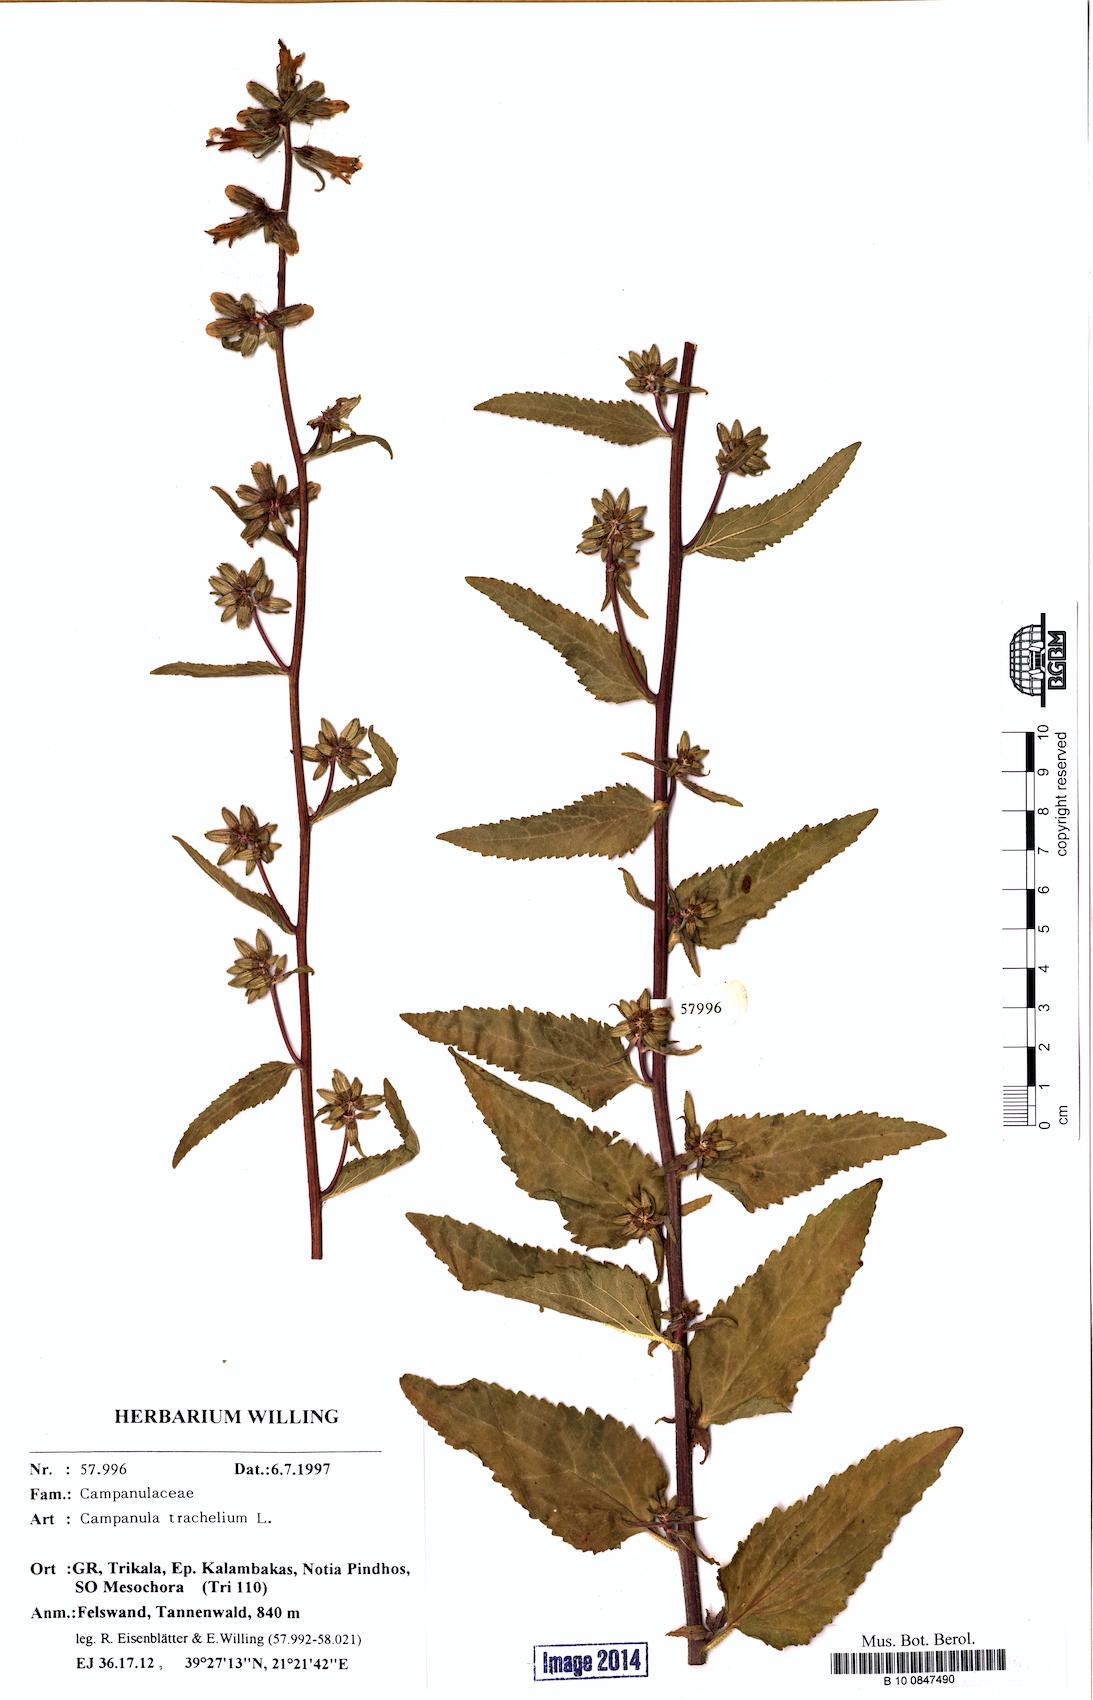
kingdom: Plantae
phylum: Tracheophyta
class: Magnoliopsida
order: Asterales
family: Campanulaceae
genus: Campanula
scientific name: Campanula trachelium
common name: Nettle-leaved bellflower
